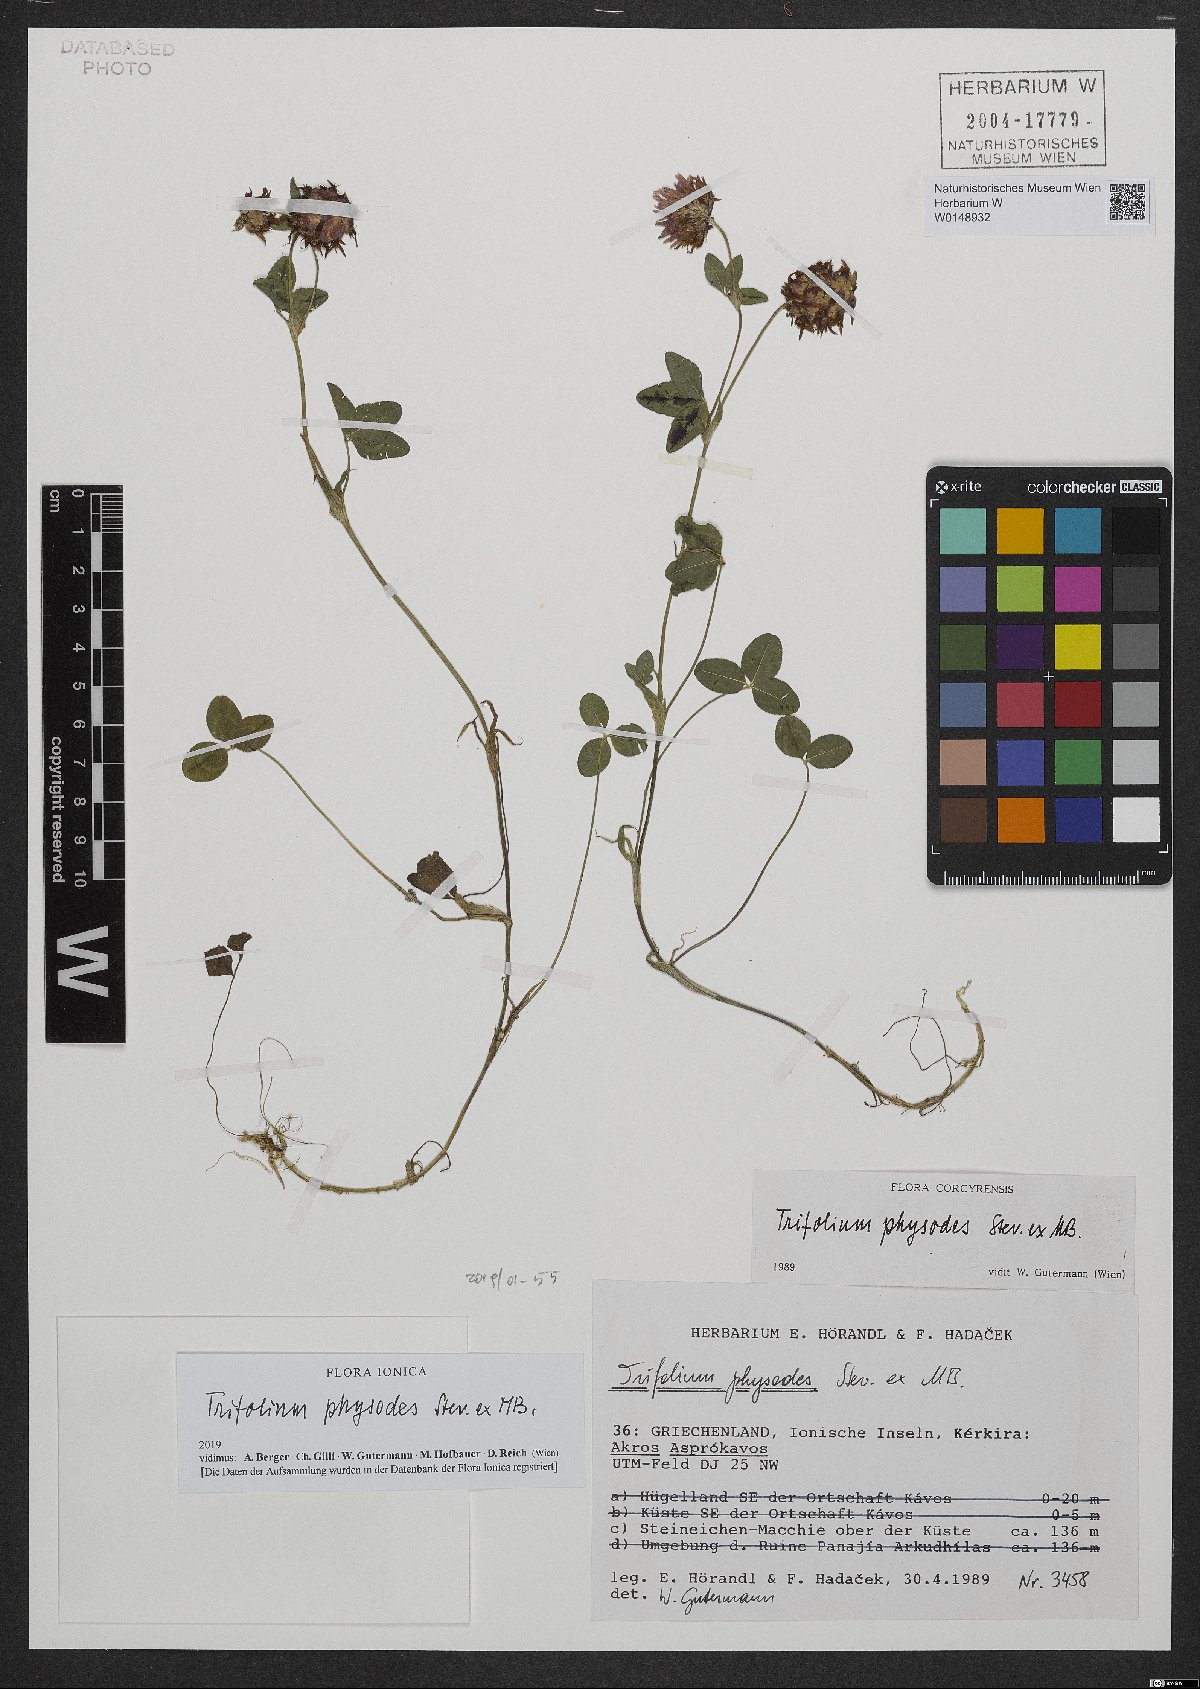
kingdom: Plantae
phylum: Tracheophyta
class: Magnoliopsida
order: Fabales
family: Fabaceae
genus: Trifolium
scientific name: Trifolium physodes
